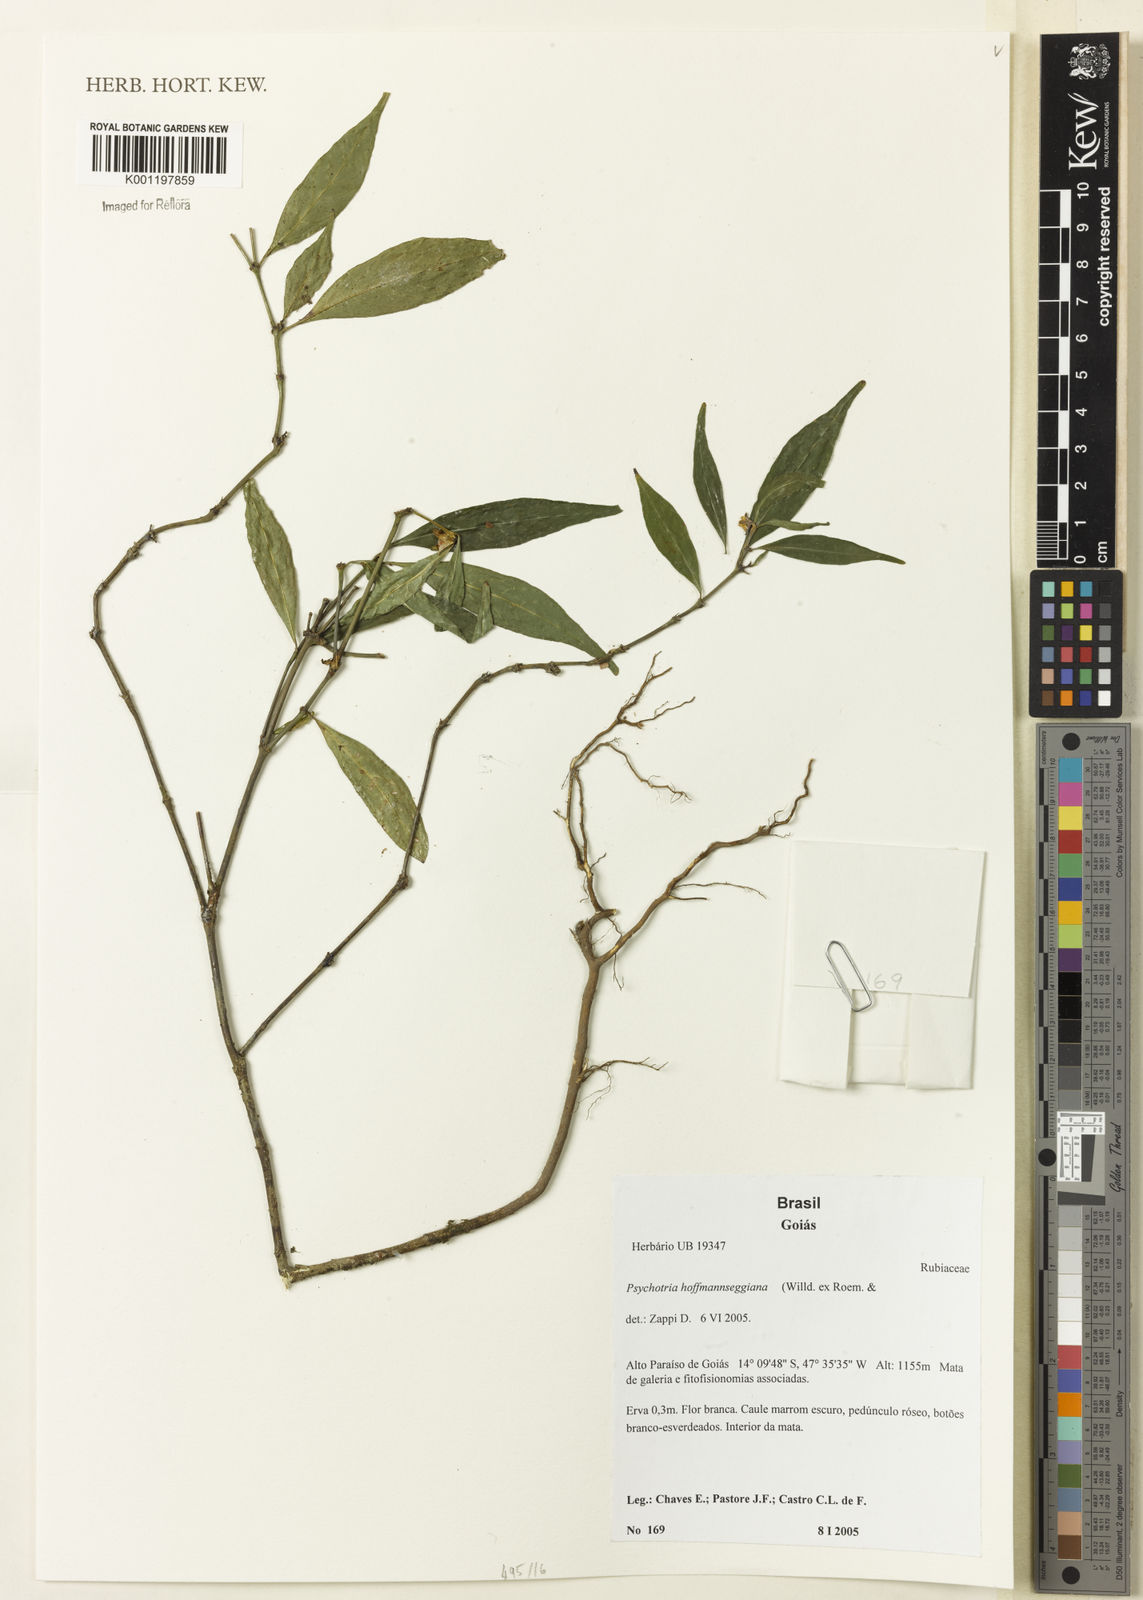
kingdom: Plantae
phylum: Tracheophyta
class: Magnoliopsida
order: Gentianales
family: Rubiaceae
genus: Psychotria
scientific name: Psychotria
